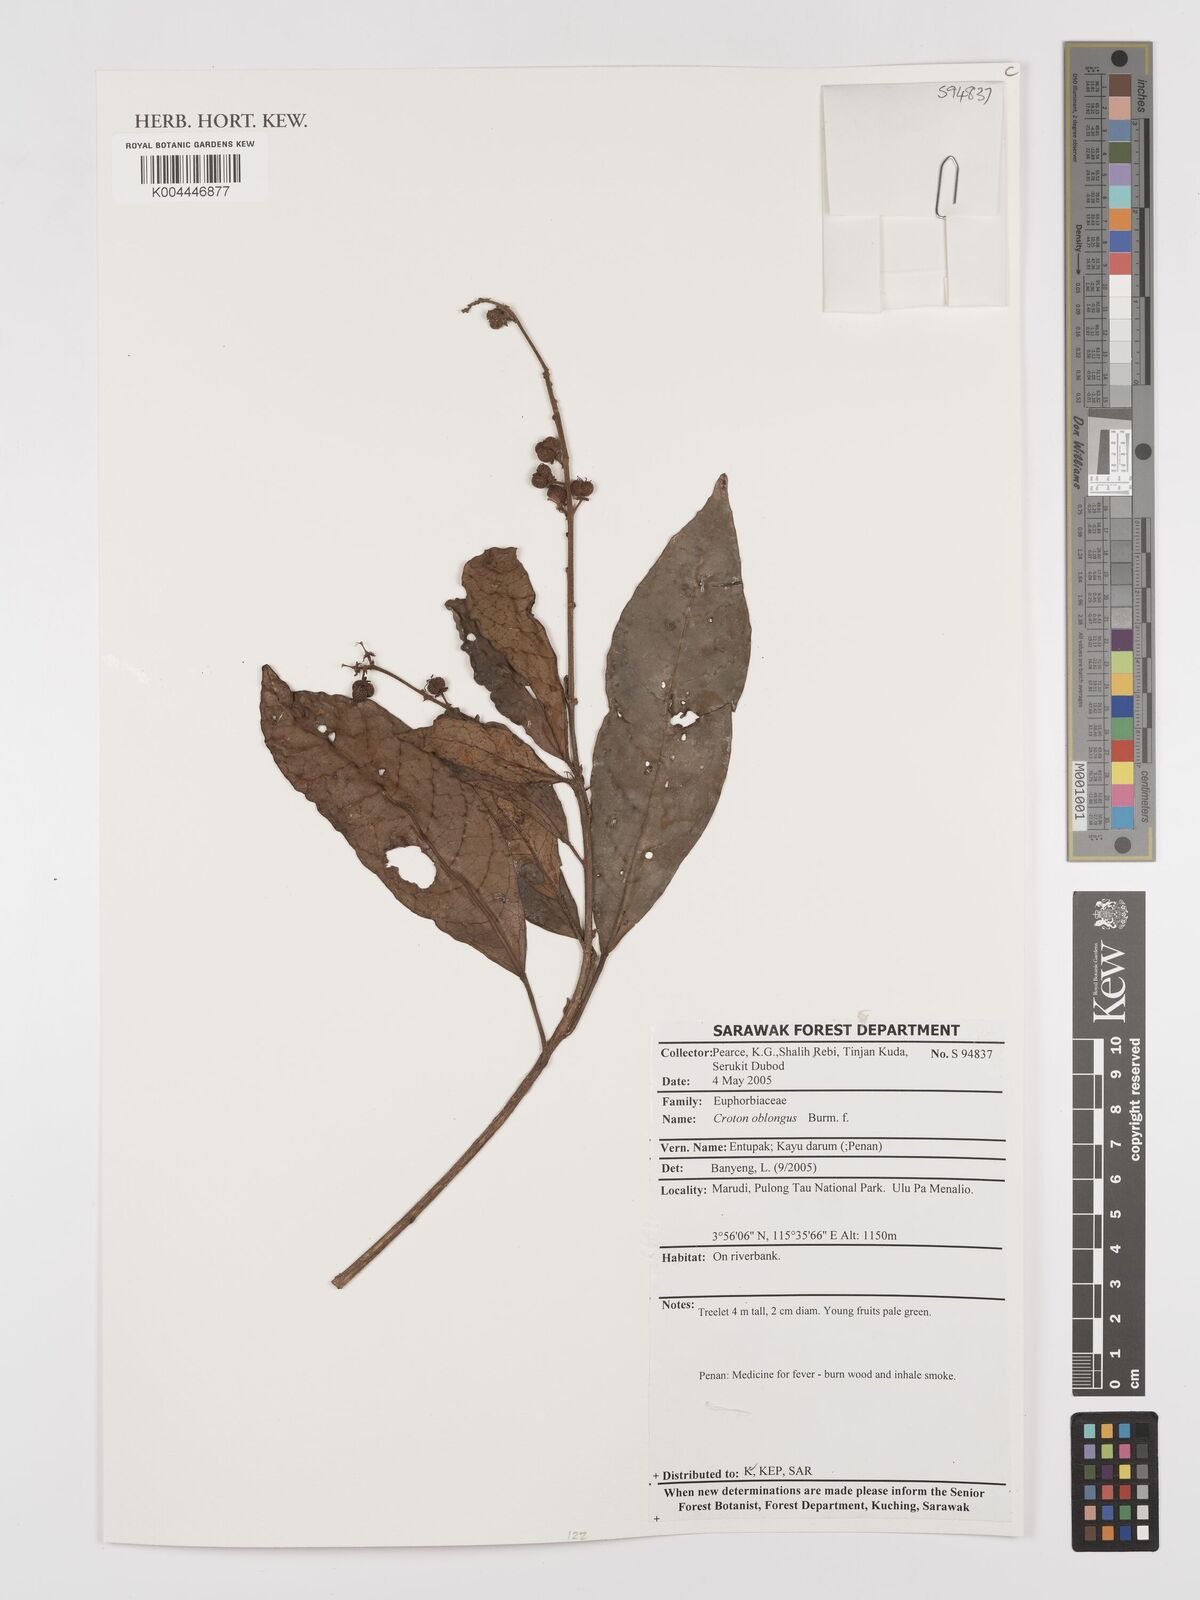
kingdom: Plantae
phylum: Tracheophyta
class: Magnoliopsida
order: Malpighiales
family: Euphorbiaceae
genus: Croton
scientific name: Croton oblongus
